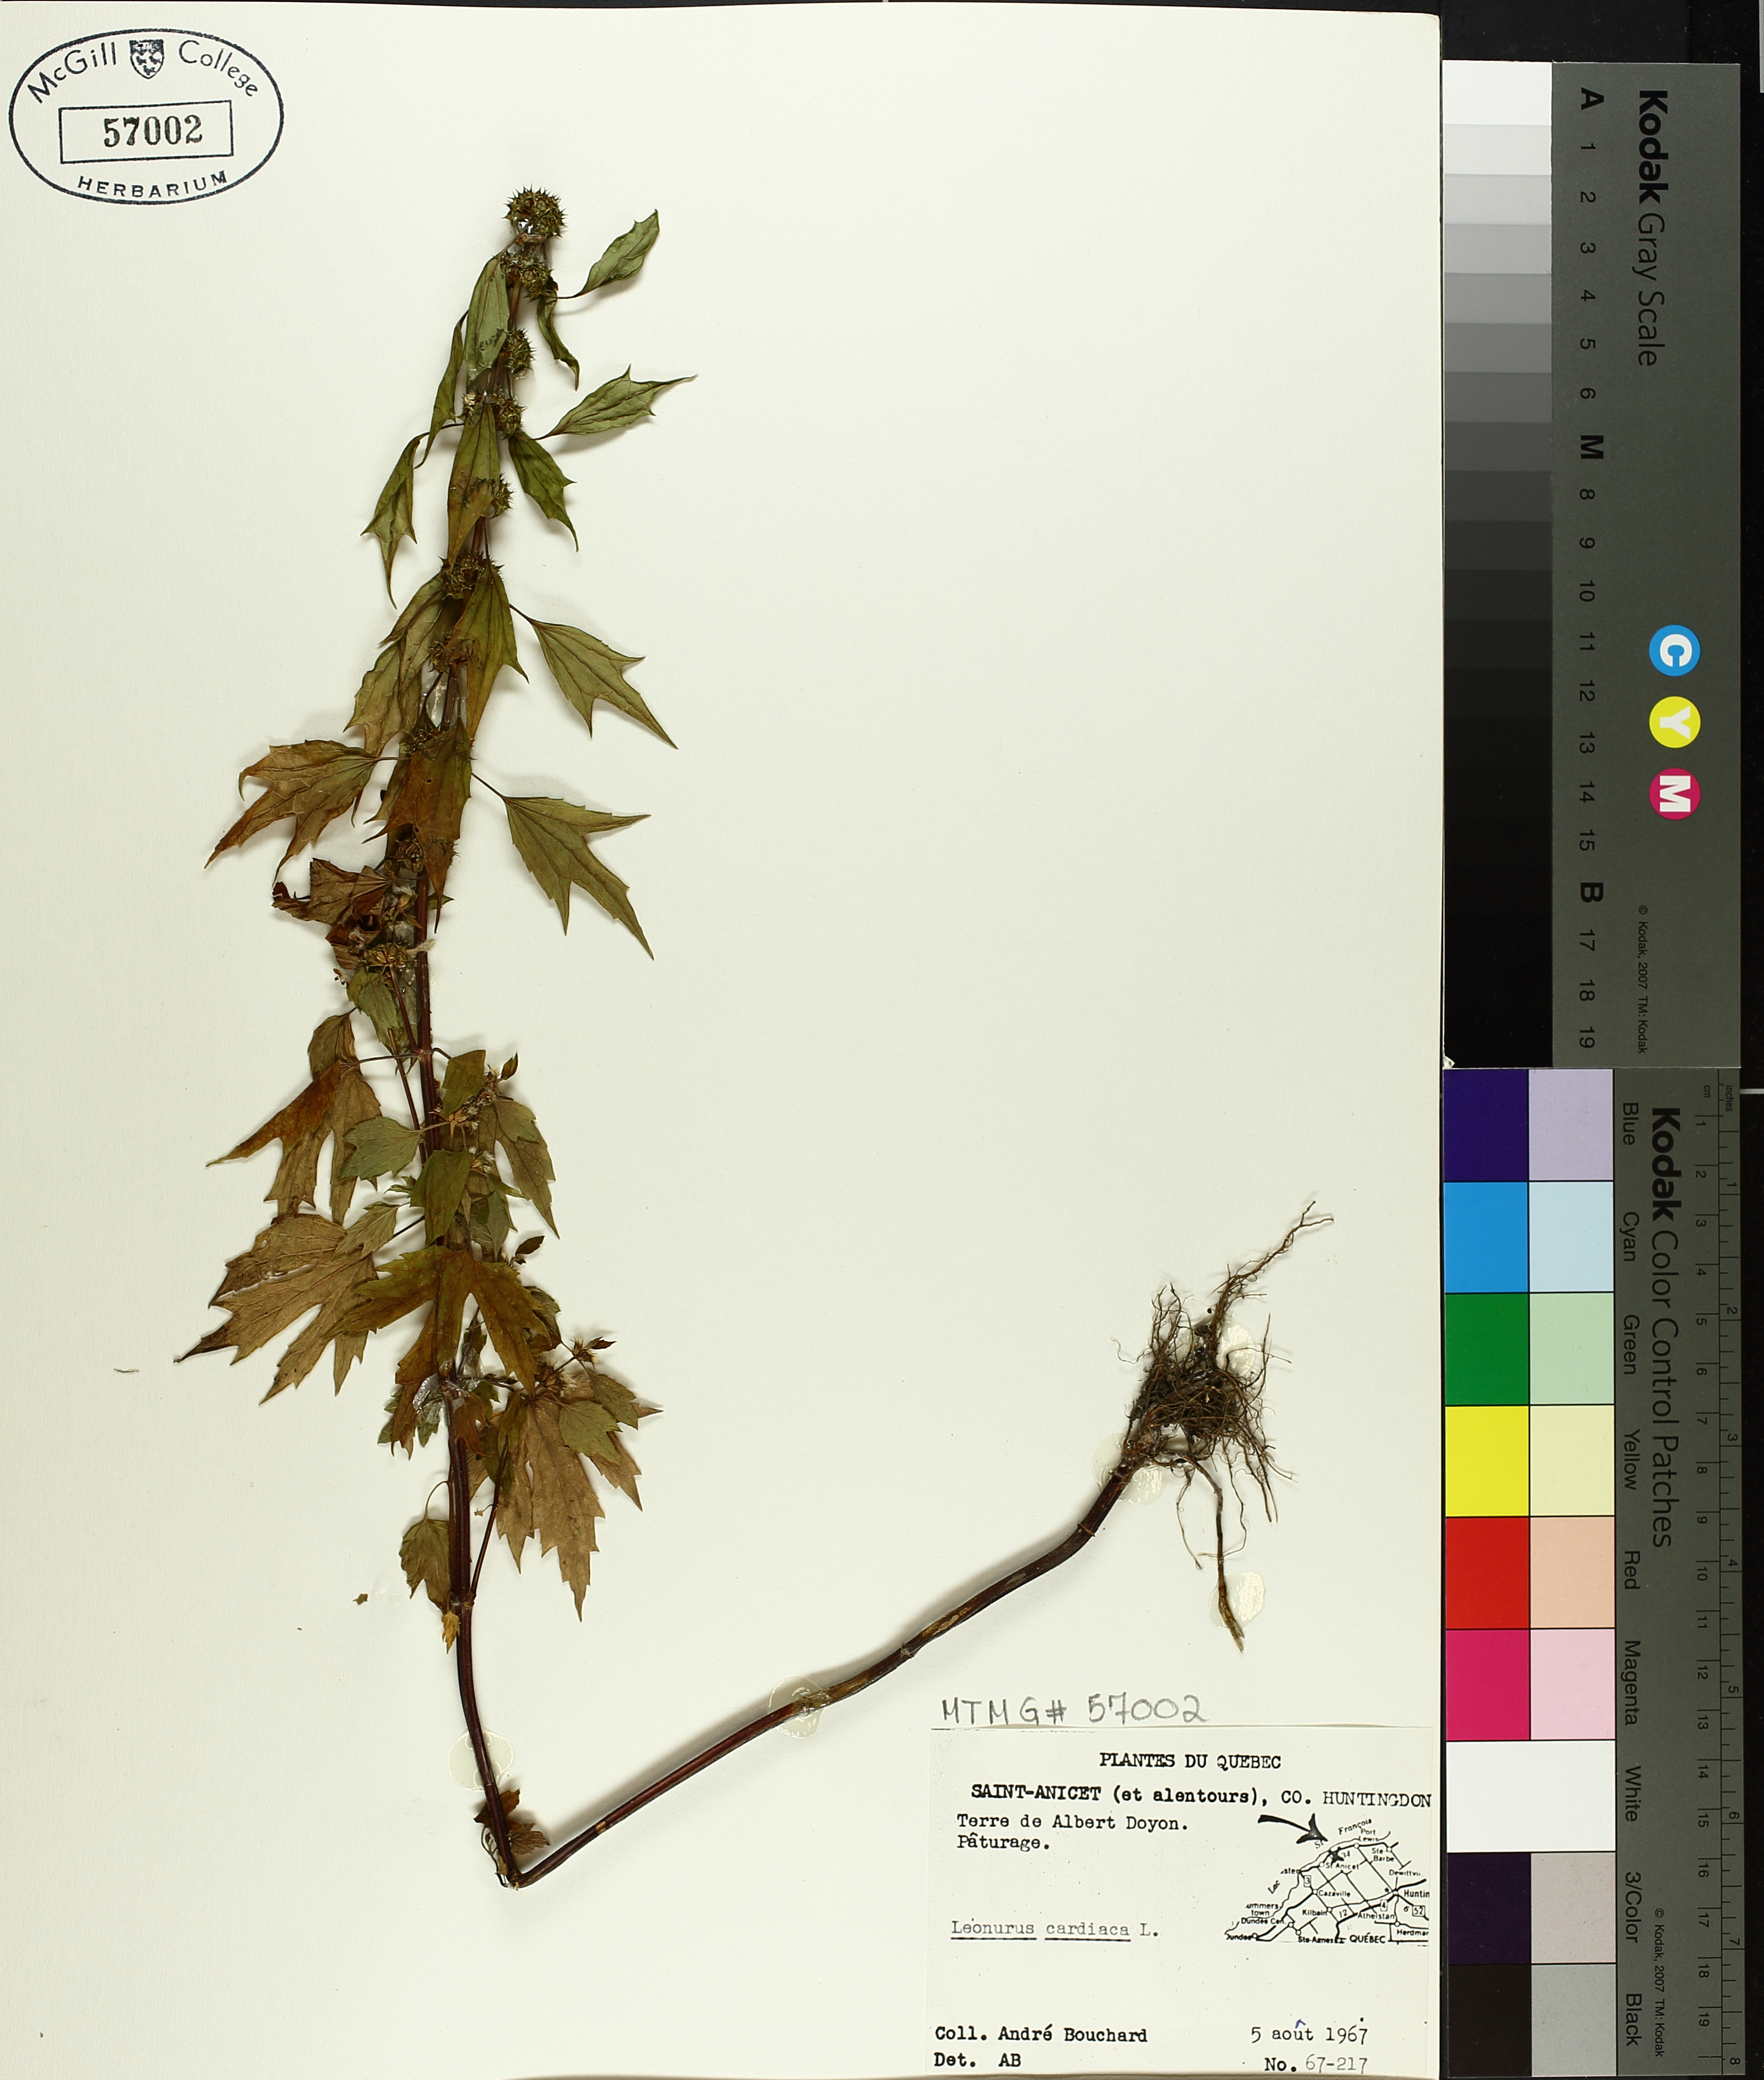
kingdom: Plantae
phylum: Tracheophyta
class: Magnoliopsida
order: Lamiales
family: Lamiaceae
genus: Leonurus
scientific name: Leonurus cardiaca
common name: Motherwort
